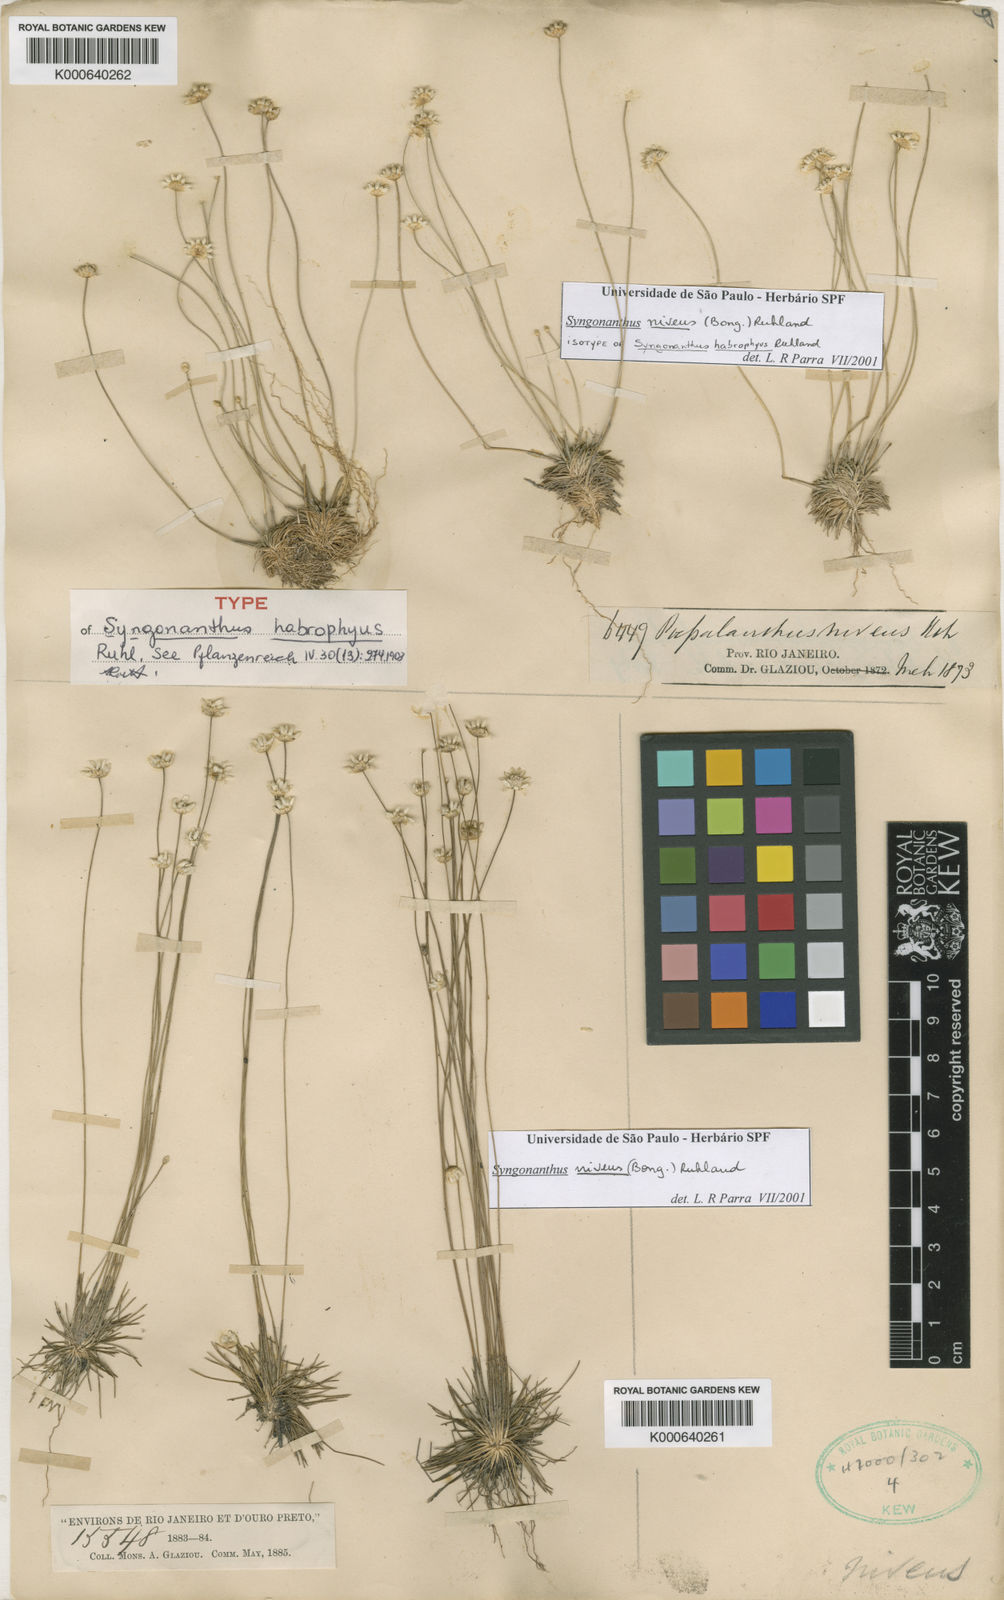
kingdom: Plantae
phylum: Tracheophyta
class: Liliopsida
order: Poales
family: Eriocaulaceae
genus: Comanthera
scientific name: Comanthera nivea
